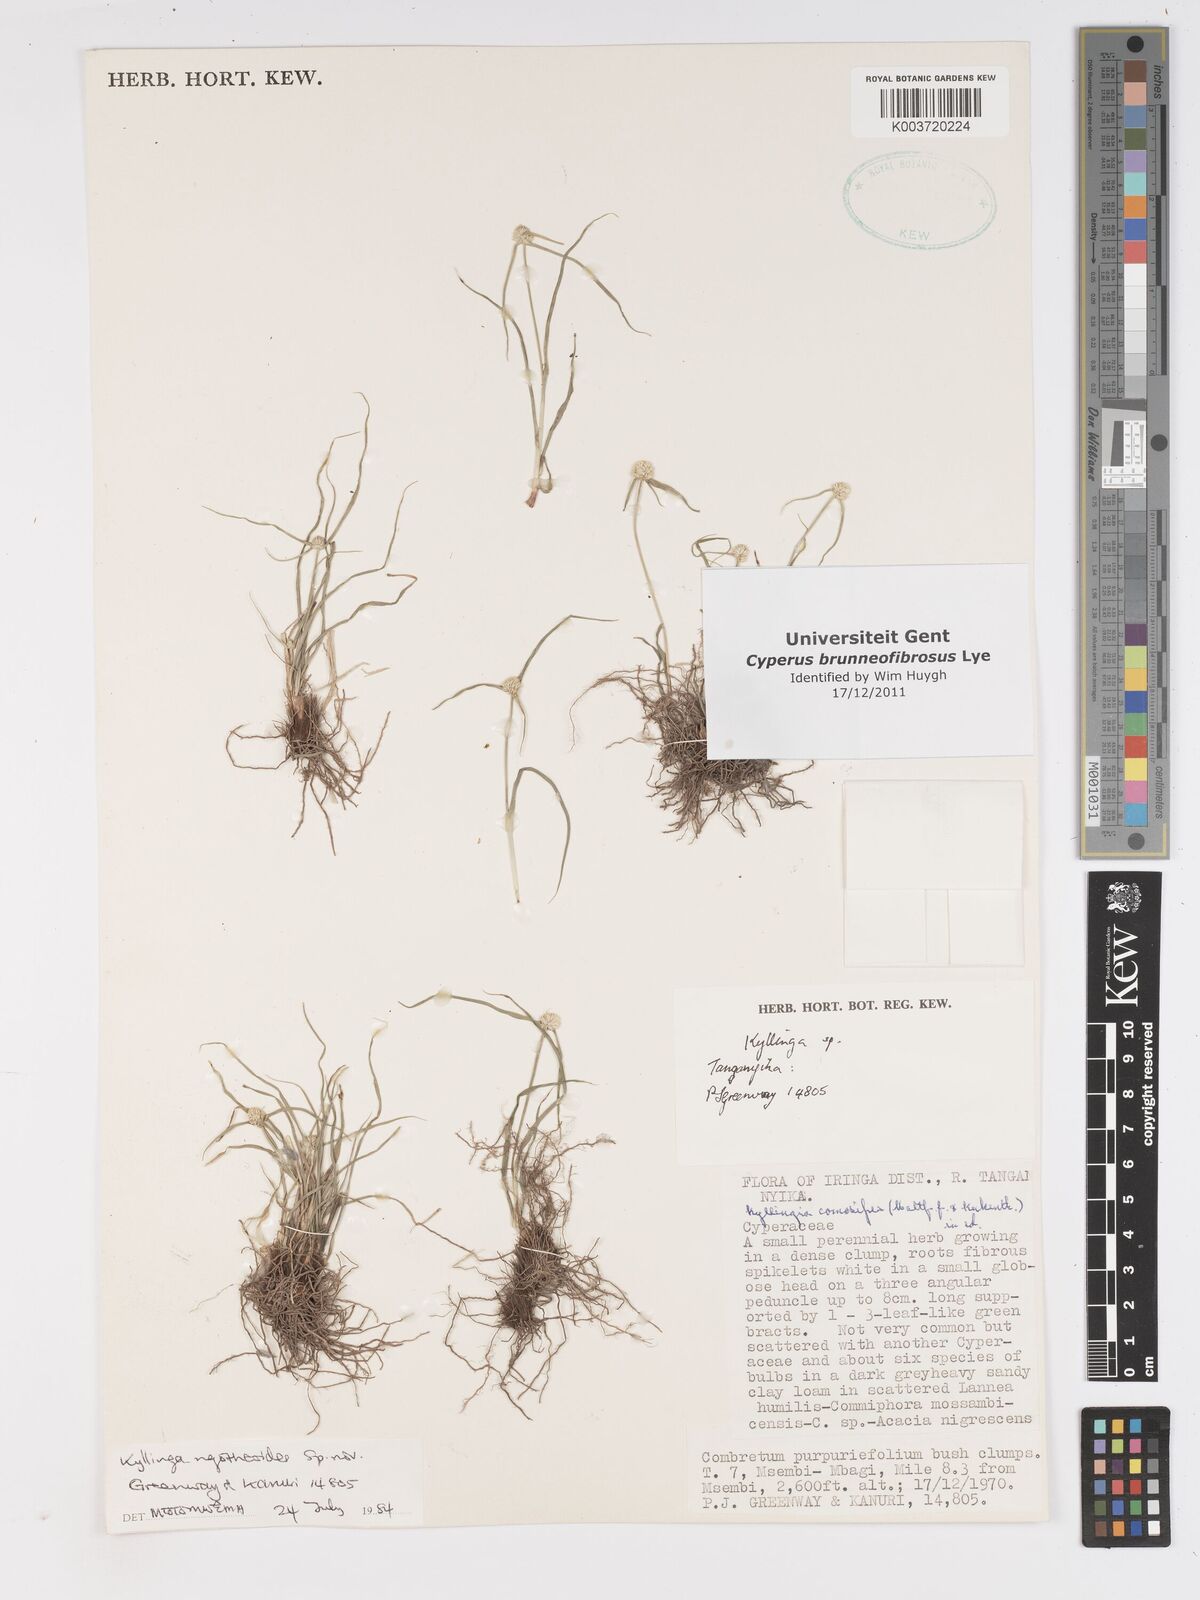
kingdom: Plantae
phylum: Tracheophyta
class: Liliopsida
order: Poales
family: Cyperaceae
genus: Cyperus
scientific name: Cyperus brunneofibrosus
